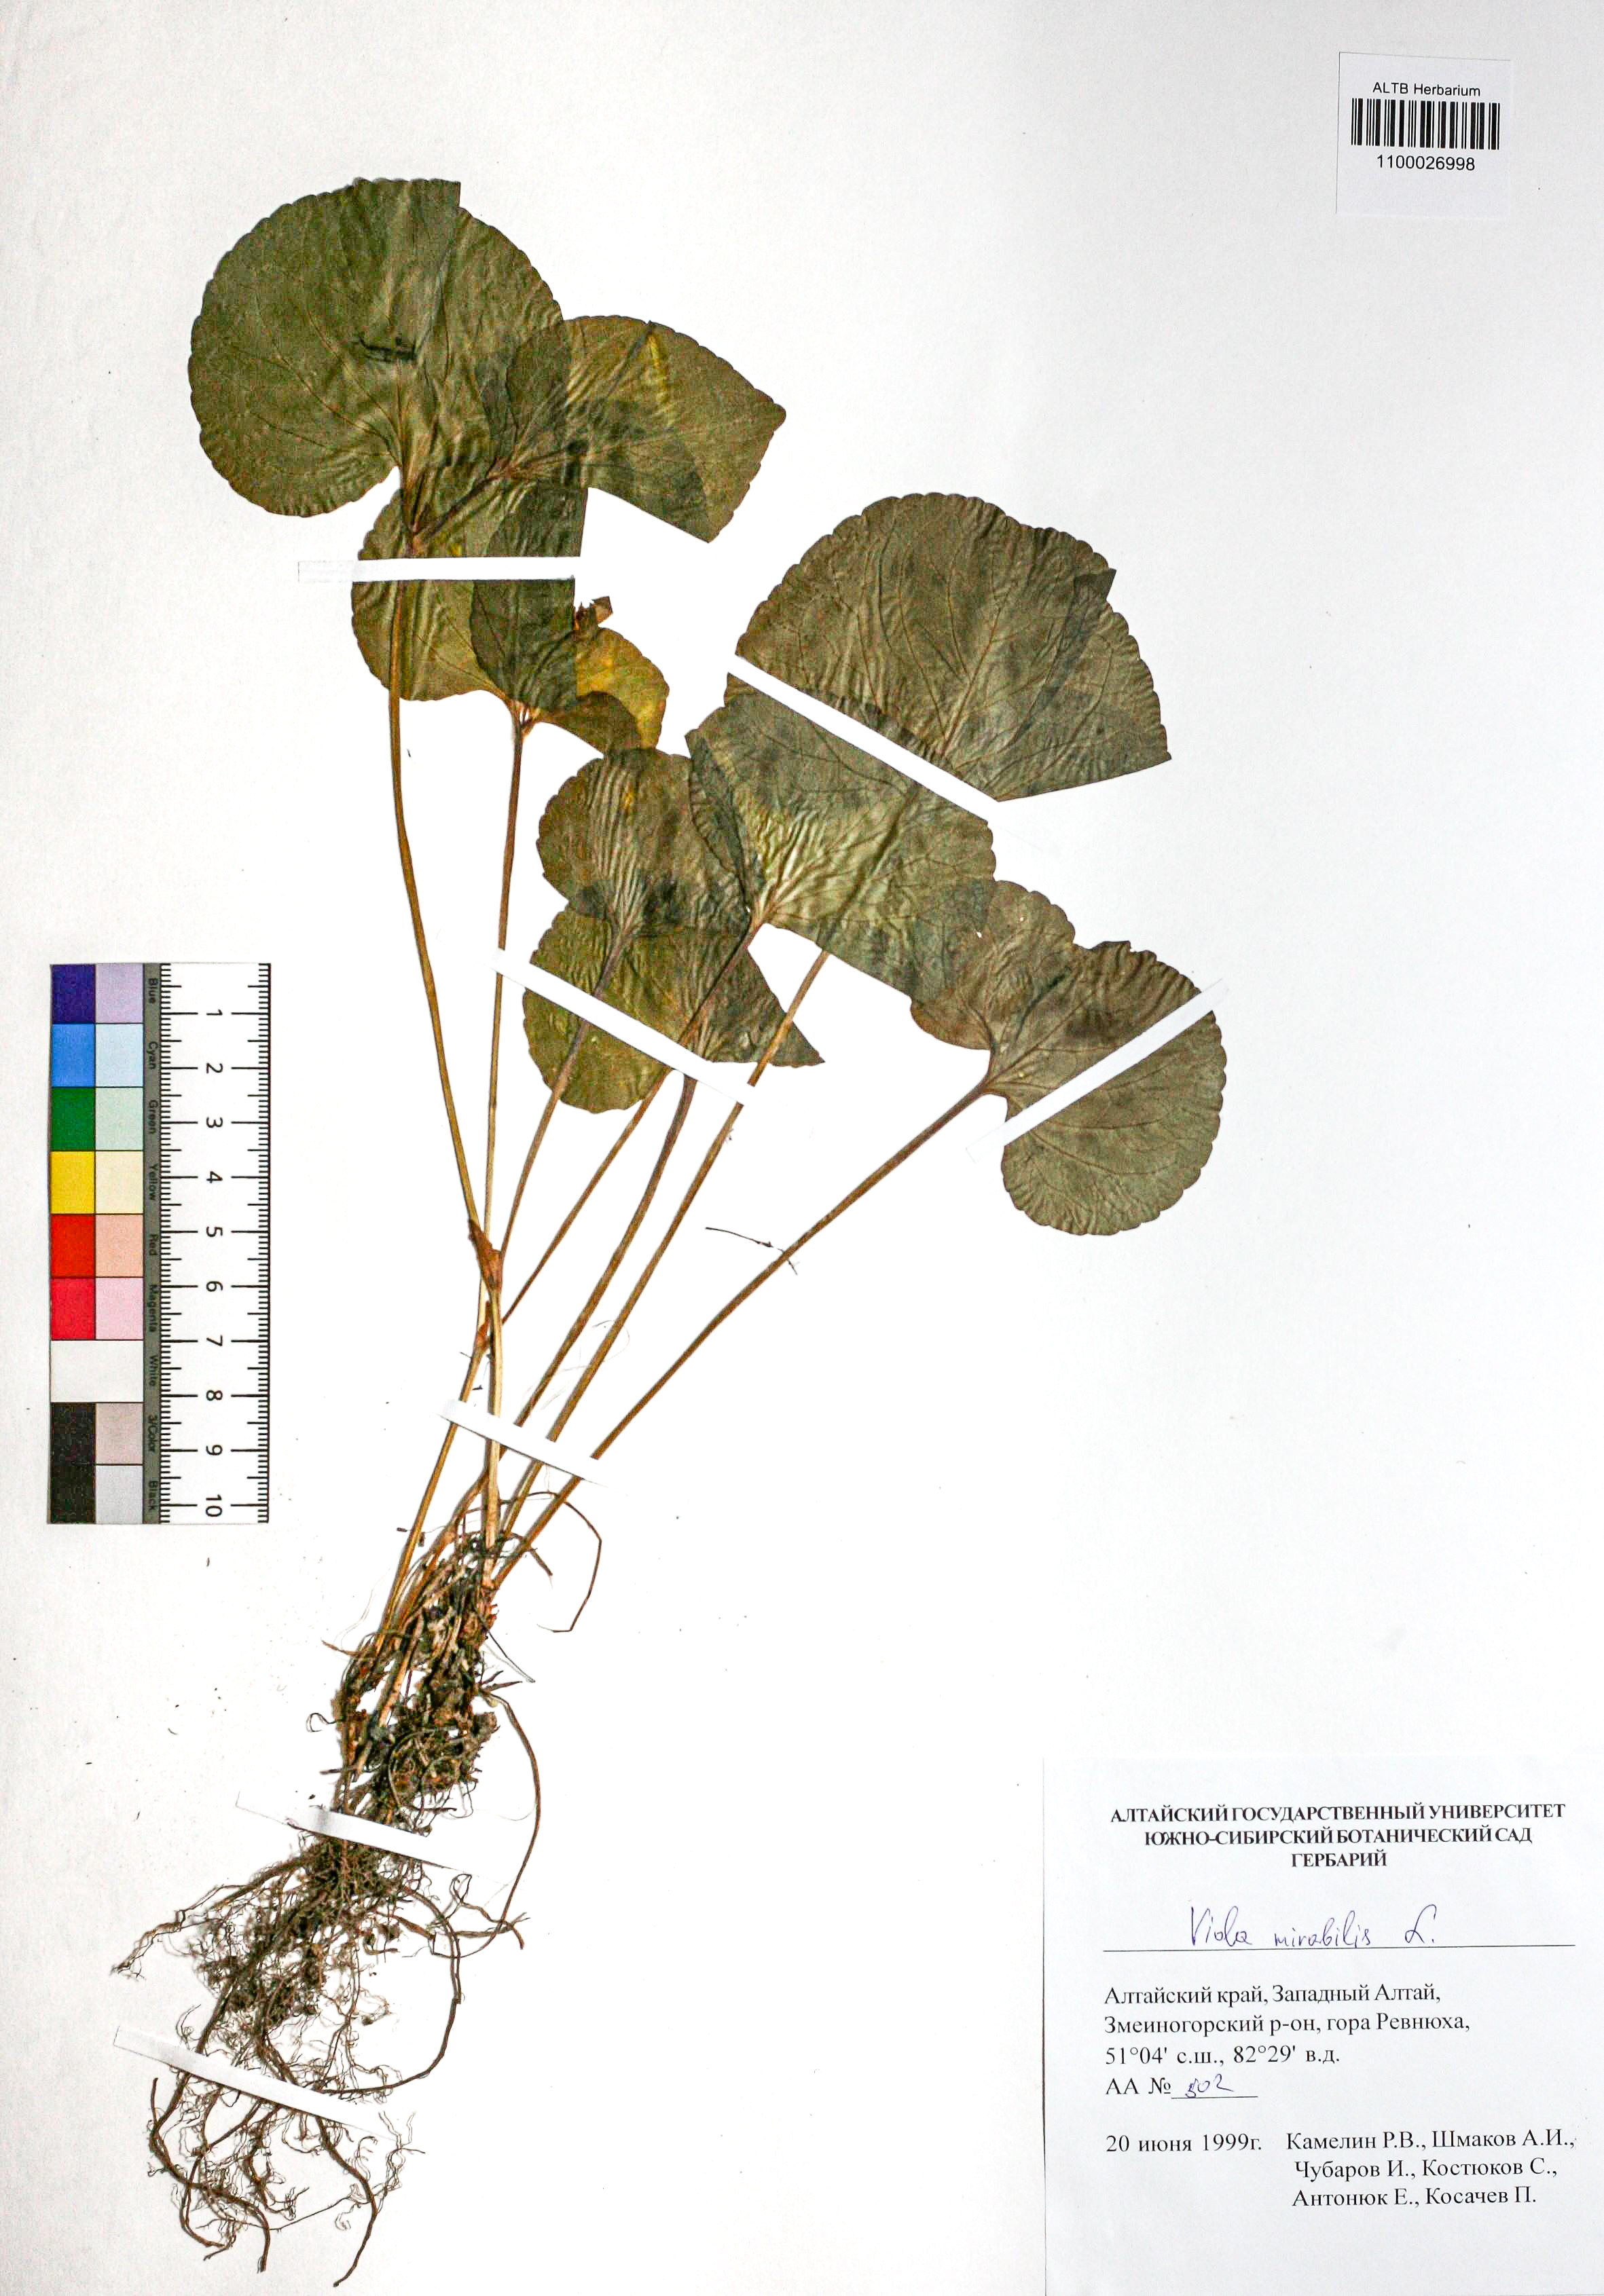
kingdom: Plantae
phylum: Tracheophyta
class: Magnoliopsida
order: Malpighiales
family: Violaceae
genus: Viola
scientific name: Viola mirabilis
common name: Wonder violet
